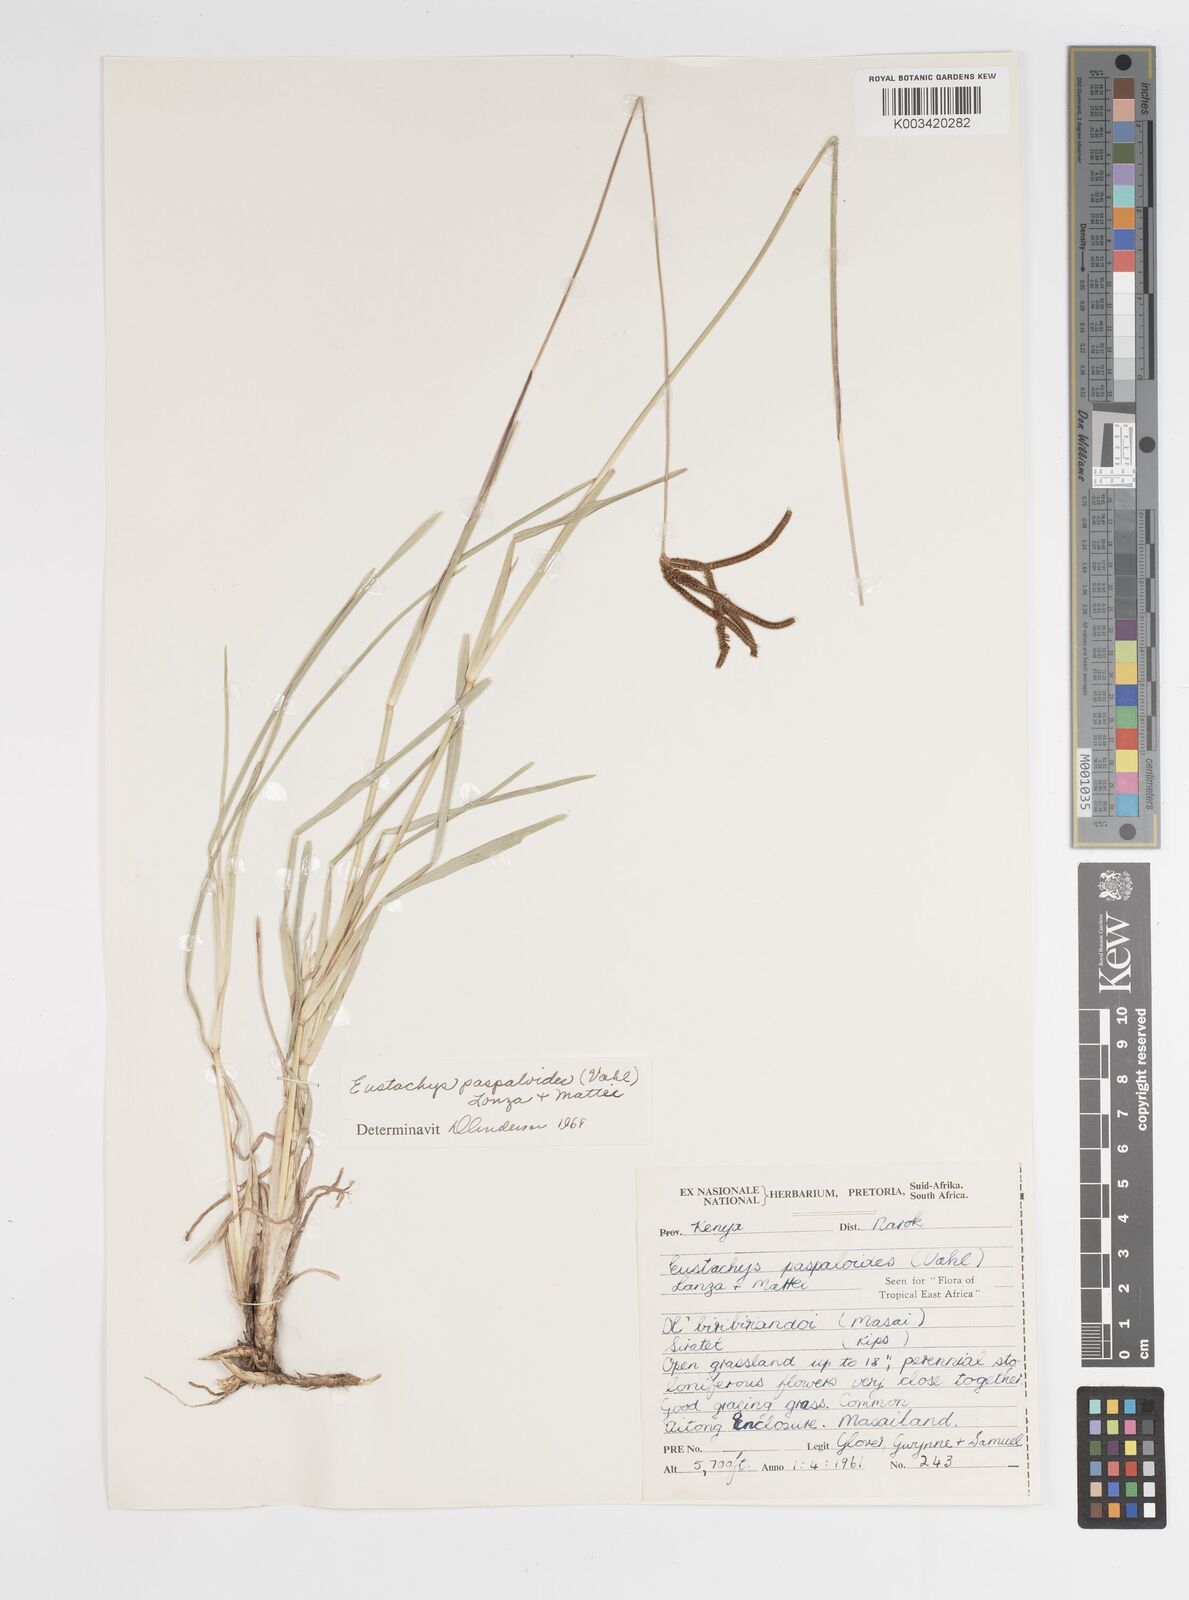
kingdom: Plantae
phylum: Tracheophyta
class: Liliopsida
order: Poales
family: Poaceae
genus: Eustachys
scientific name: Eustachys paspaloides
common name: Caribbean fingergrass
